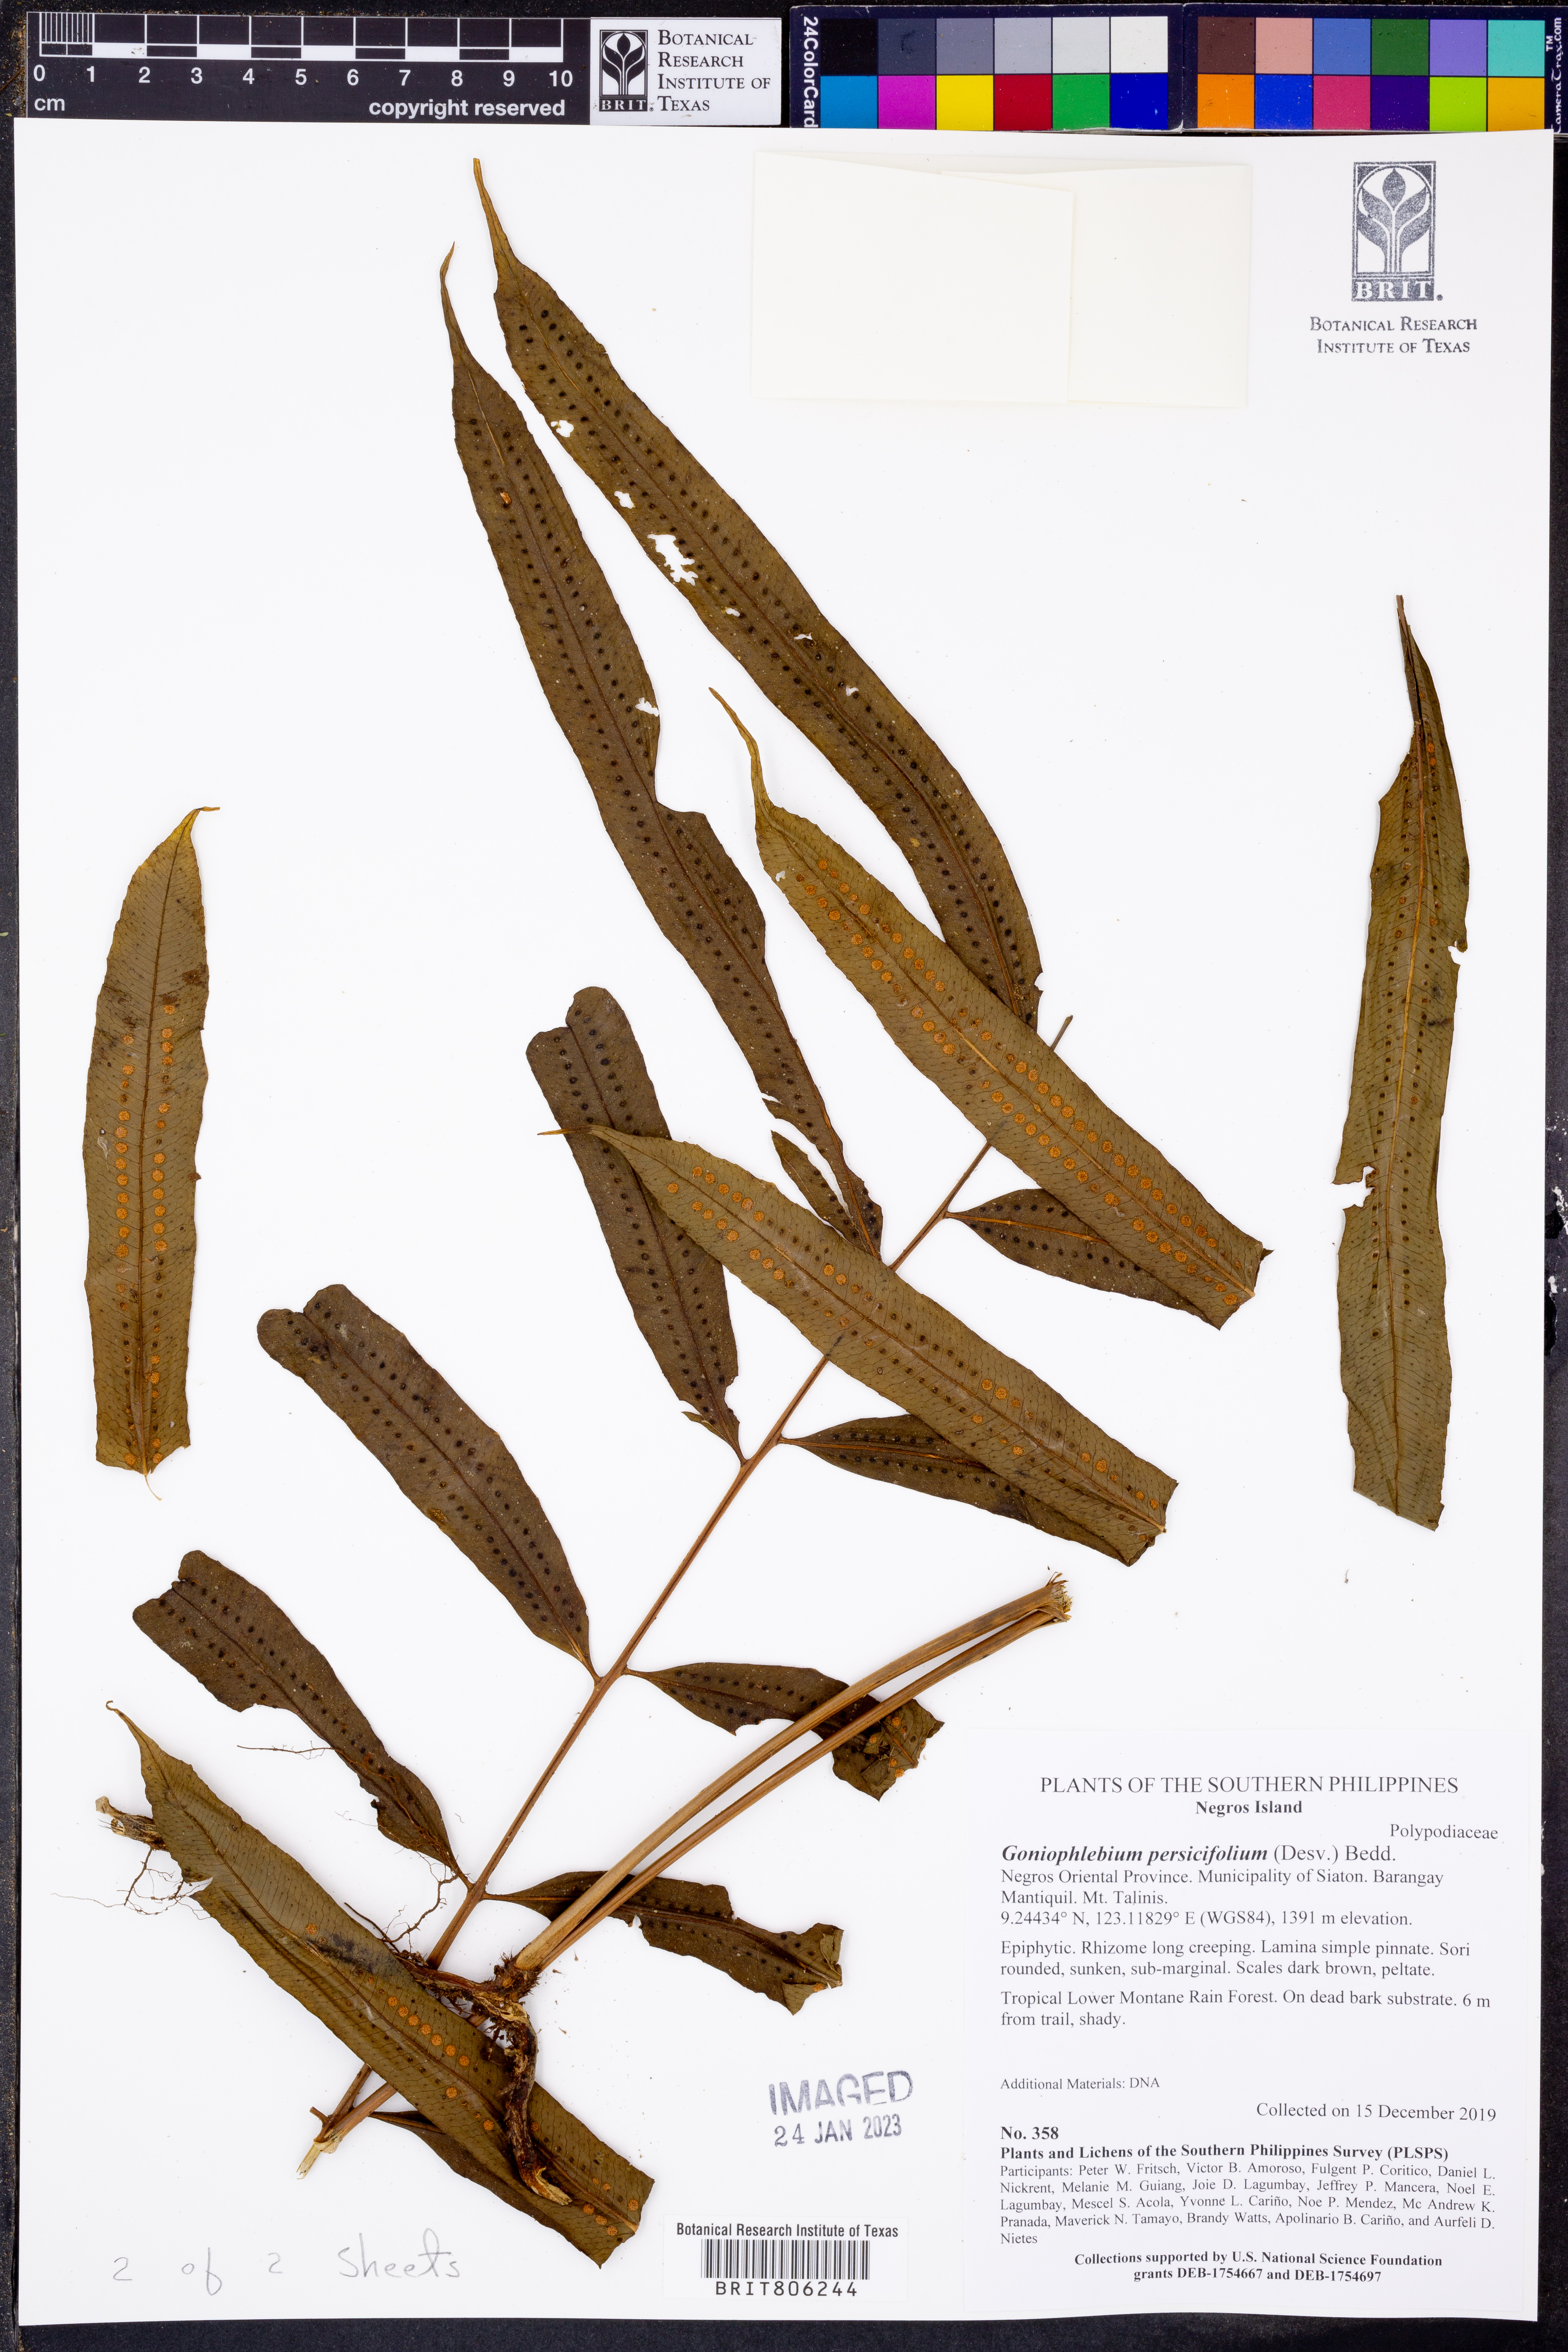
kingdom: Plantae
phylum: Tracheophyta
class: Polypodiopsida
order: Polypodiales
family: Polypodiaceae
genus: Goniophlebium
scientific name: Goniophlebium persicifolium
